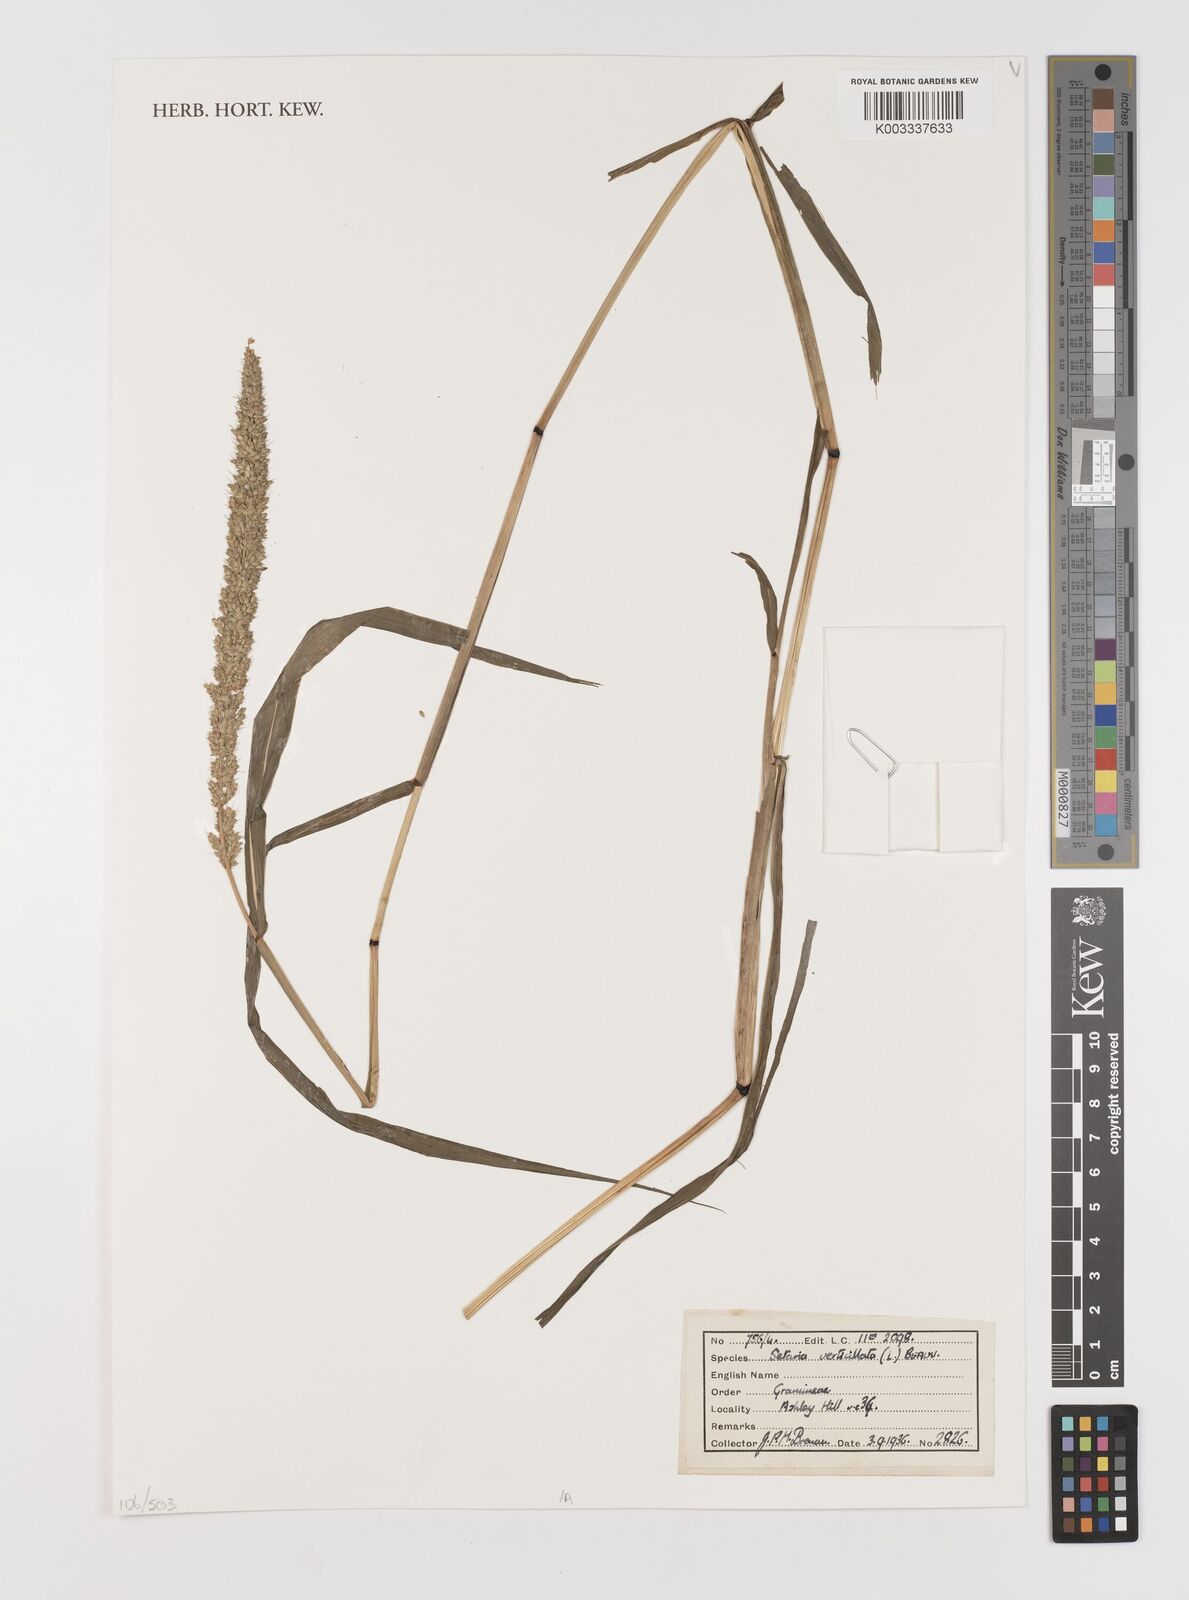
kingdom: Plantae
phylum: Tracheophyta
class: Liliopsida
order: Poales
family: Poaceae
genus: Setaria
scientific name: Setaria verticillata
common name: Hooked bristlegrass
